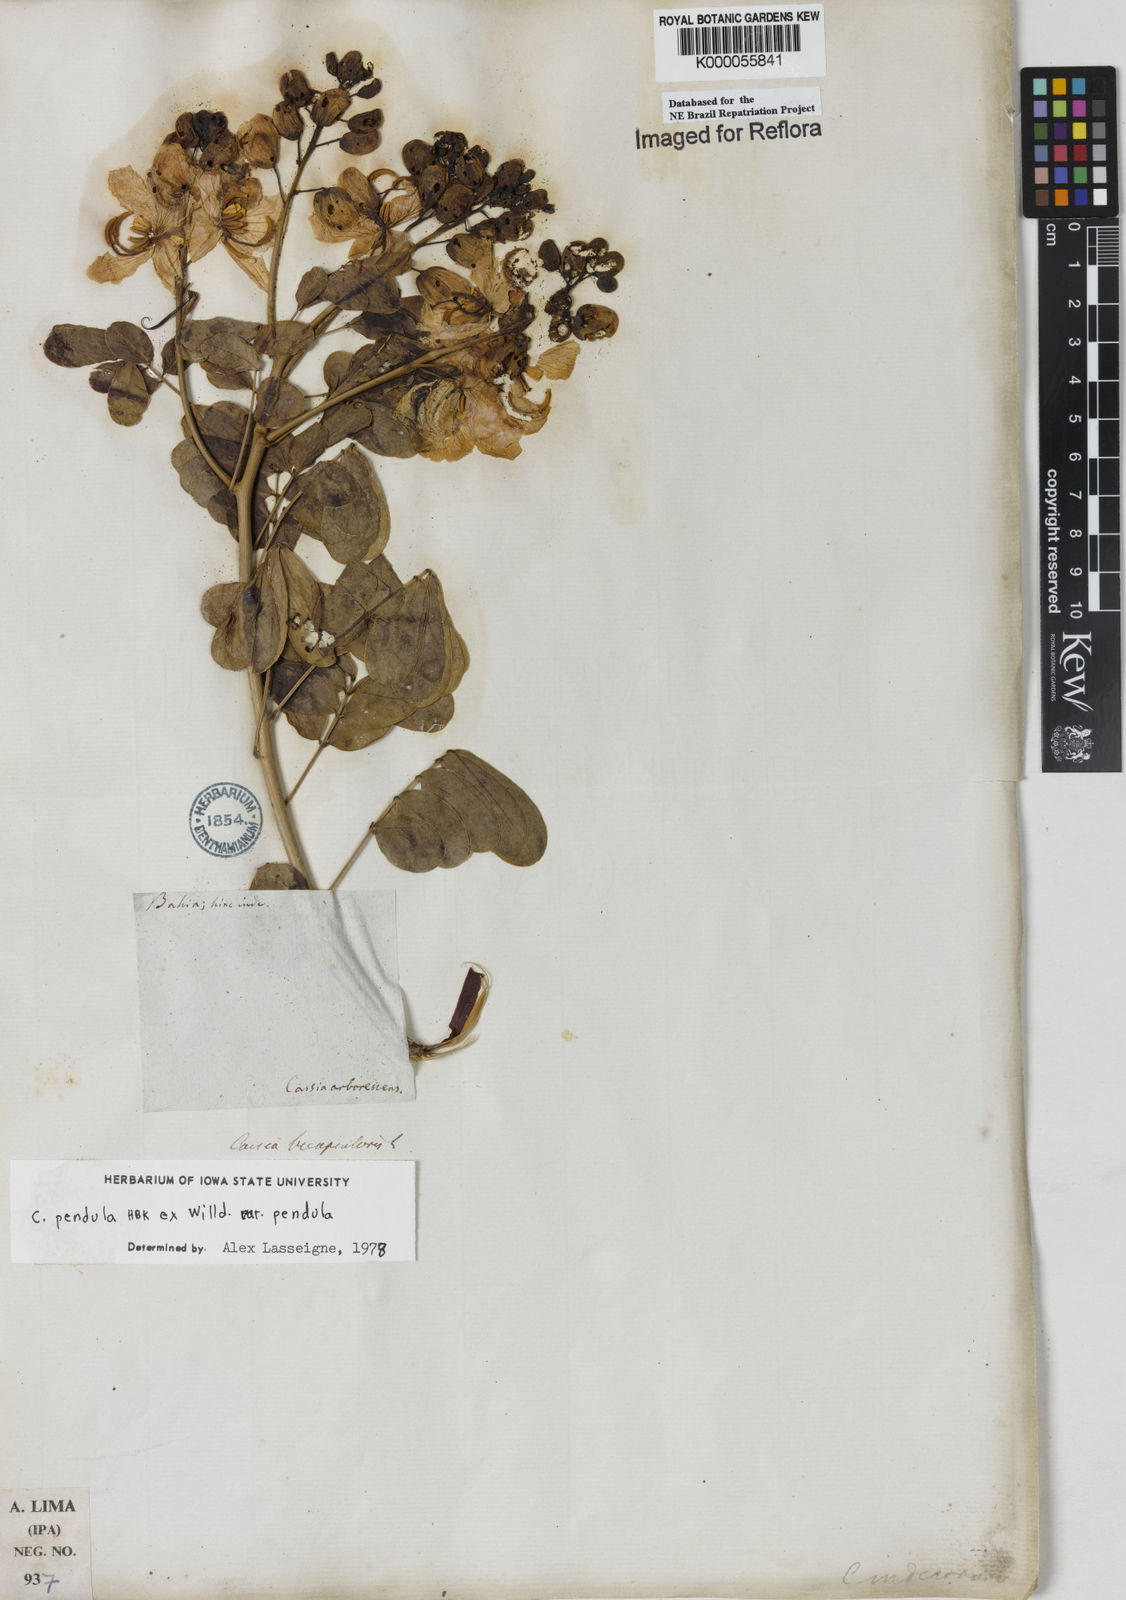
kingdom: Plantae
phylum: Tracheophyta
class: Magnoliopsida
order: Fabales
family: Fabaceae
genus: Senna
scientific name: Senna pendula
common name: Easter cassia
